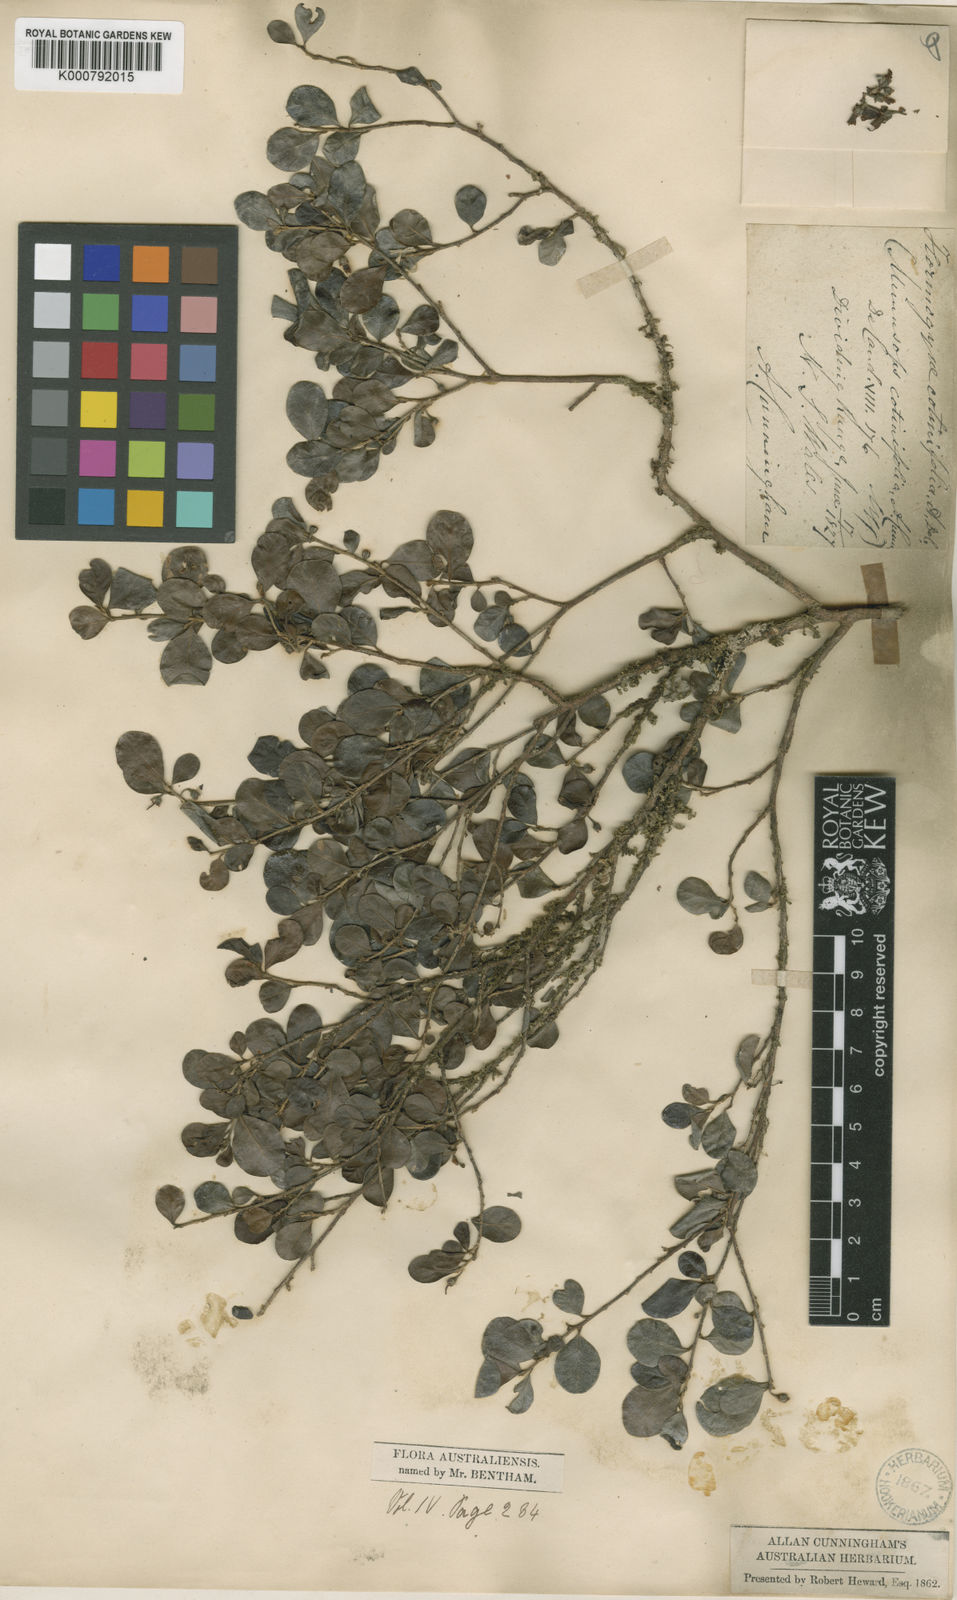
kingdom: Plantae
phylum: Tracheophyta
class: Magnoliopsida
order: Ericales
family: Sapotaceae
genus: Planchonella
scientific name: Planchonella cotinifolia
